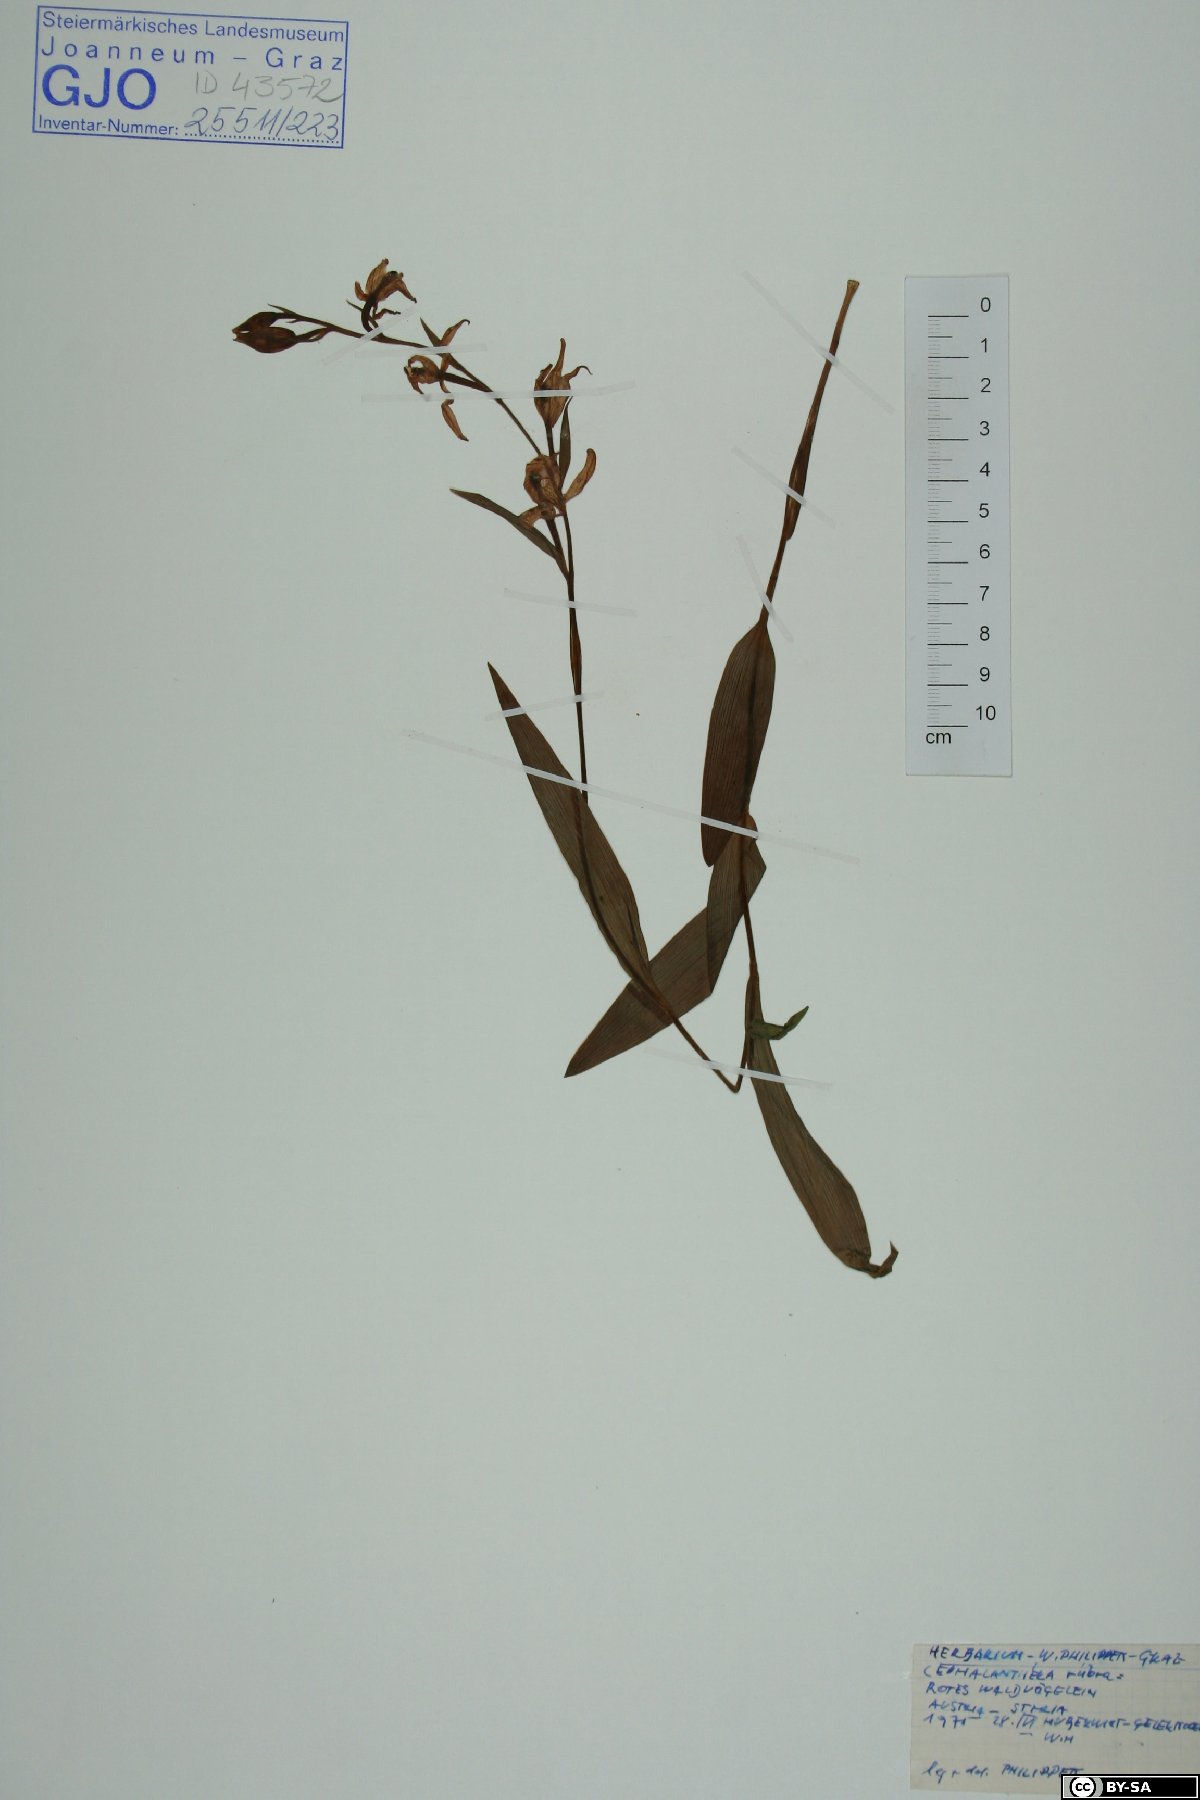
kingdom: Plantae
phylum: Tracheophyta
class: Liliopsida
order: Asparagales
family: Orchidaceae
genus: Cephalanthera
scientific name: Cephalanthera rubra
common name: Red helleborine
